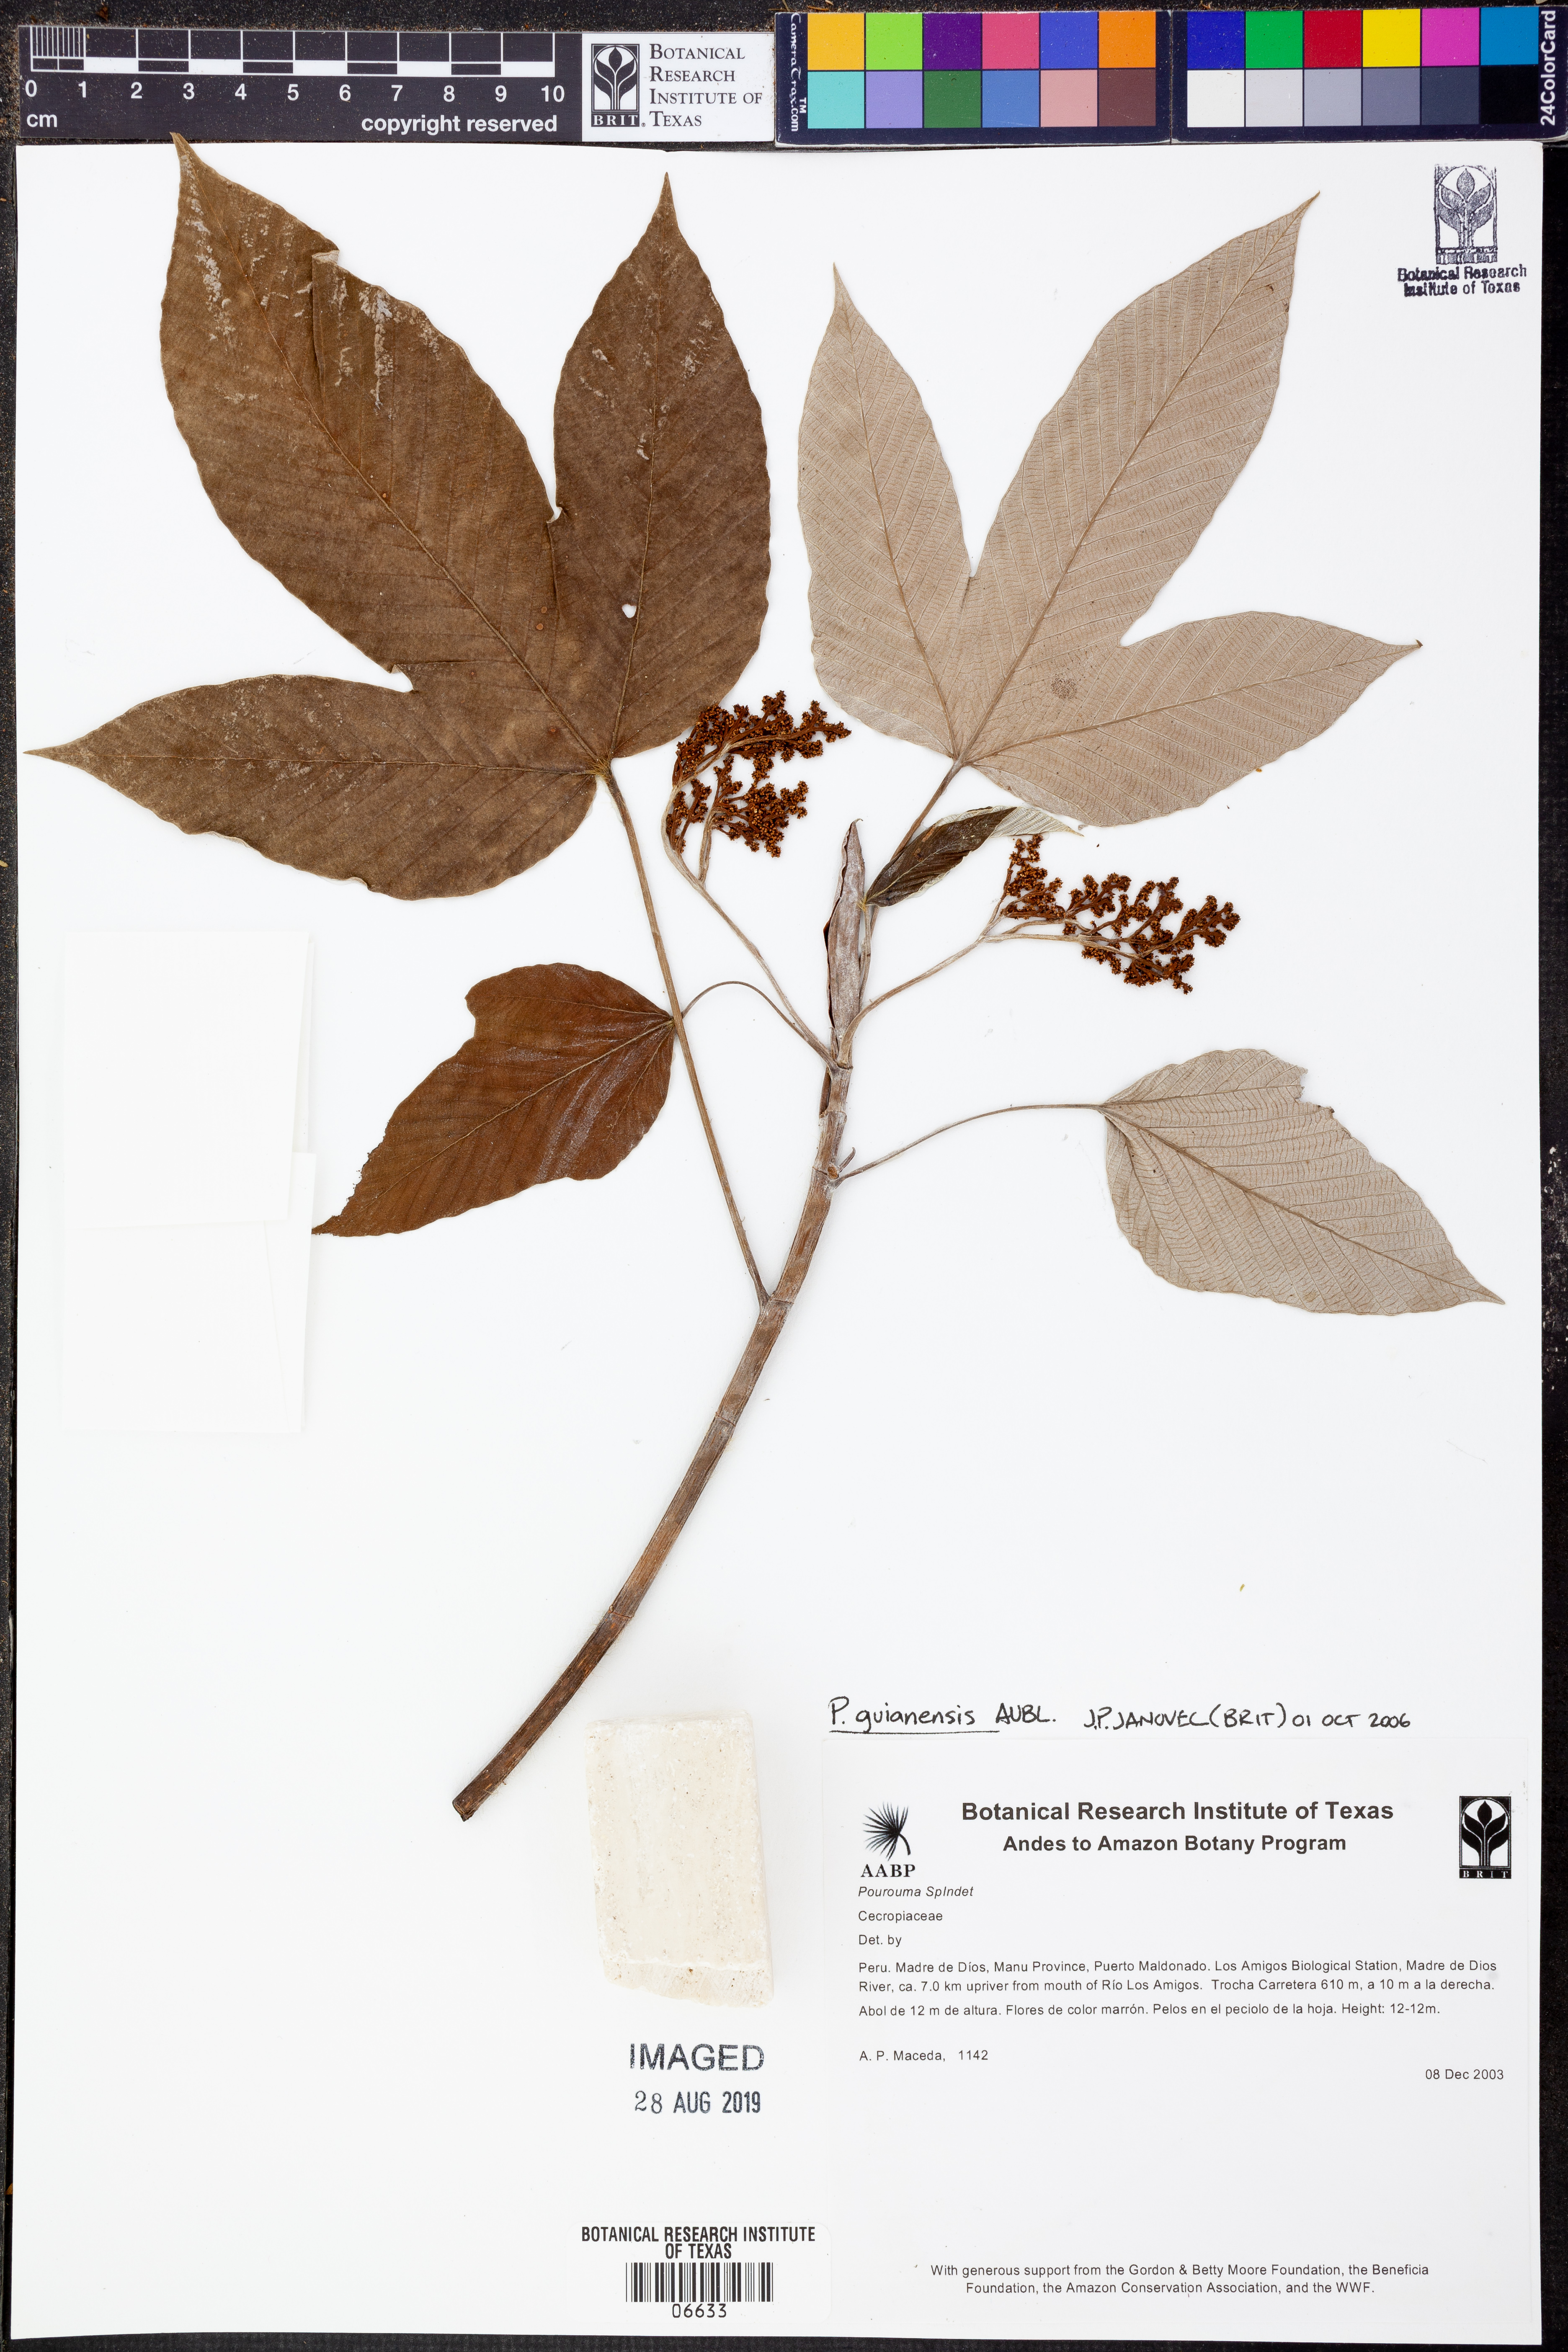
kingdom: Plantae
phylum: Tracheophyta
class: Magnoliopsida
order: Rosales
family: Urticaceae
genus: Pourouma
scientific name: Pourouma
